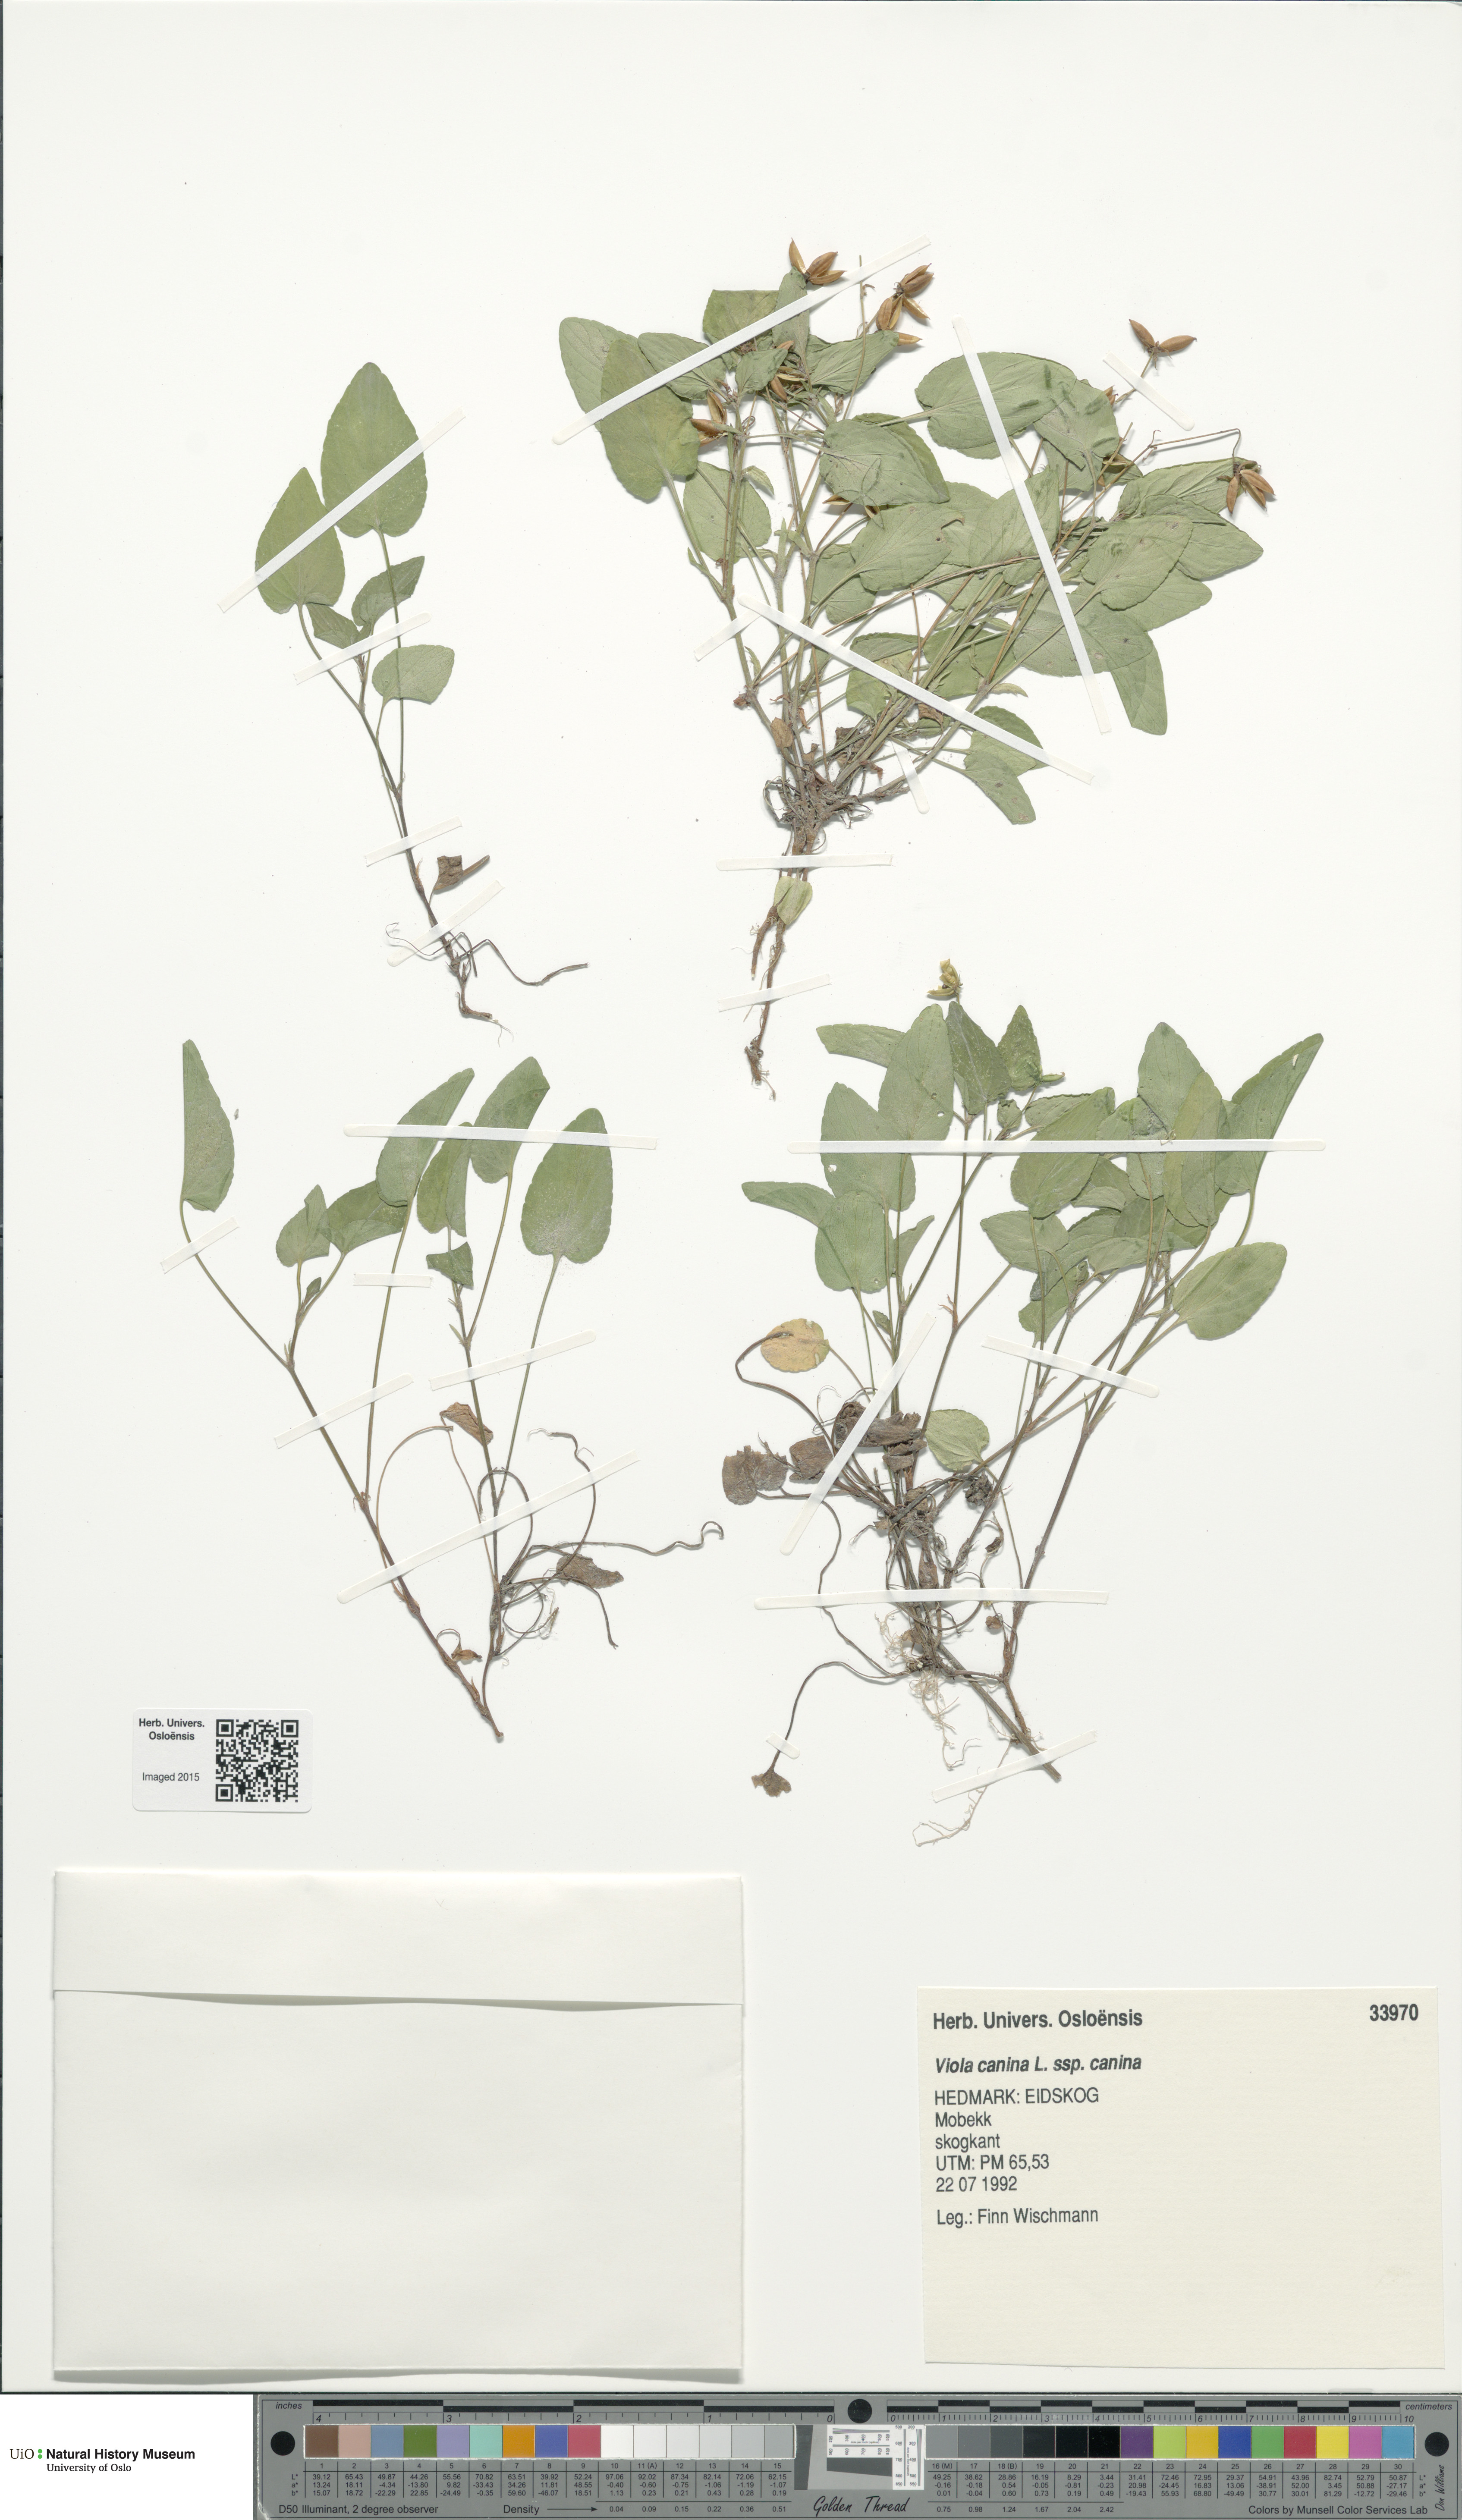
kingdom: Plantae
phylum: Tracheophyta
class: Magnoliopsida
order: Malpighiales
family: Violaceae
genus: Viola
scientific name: Viola canina
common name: Heath dog-violet
